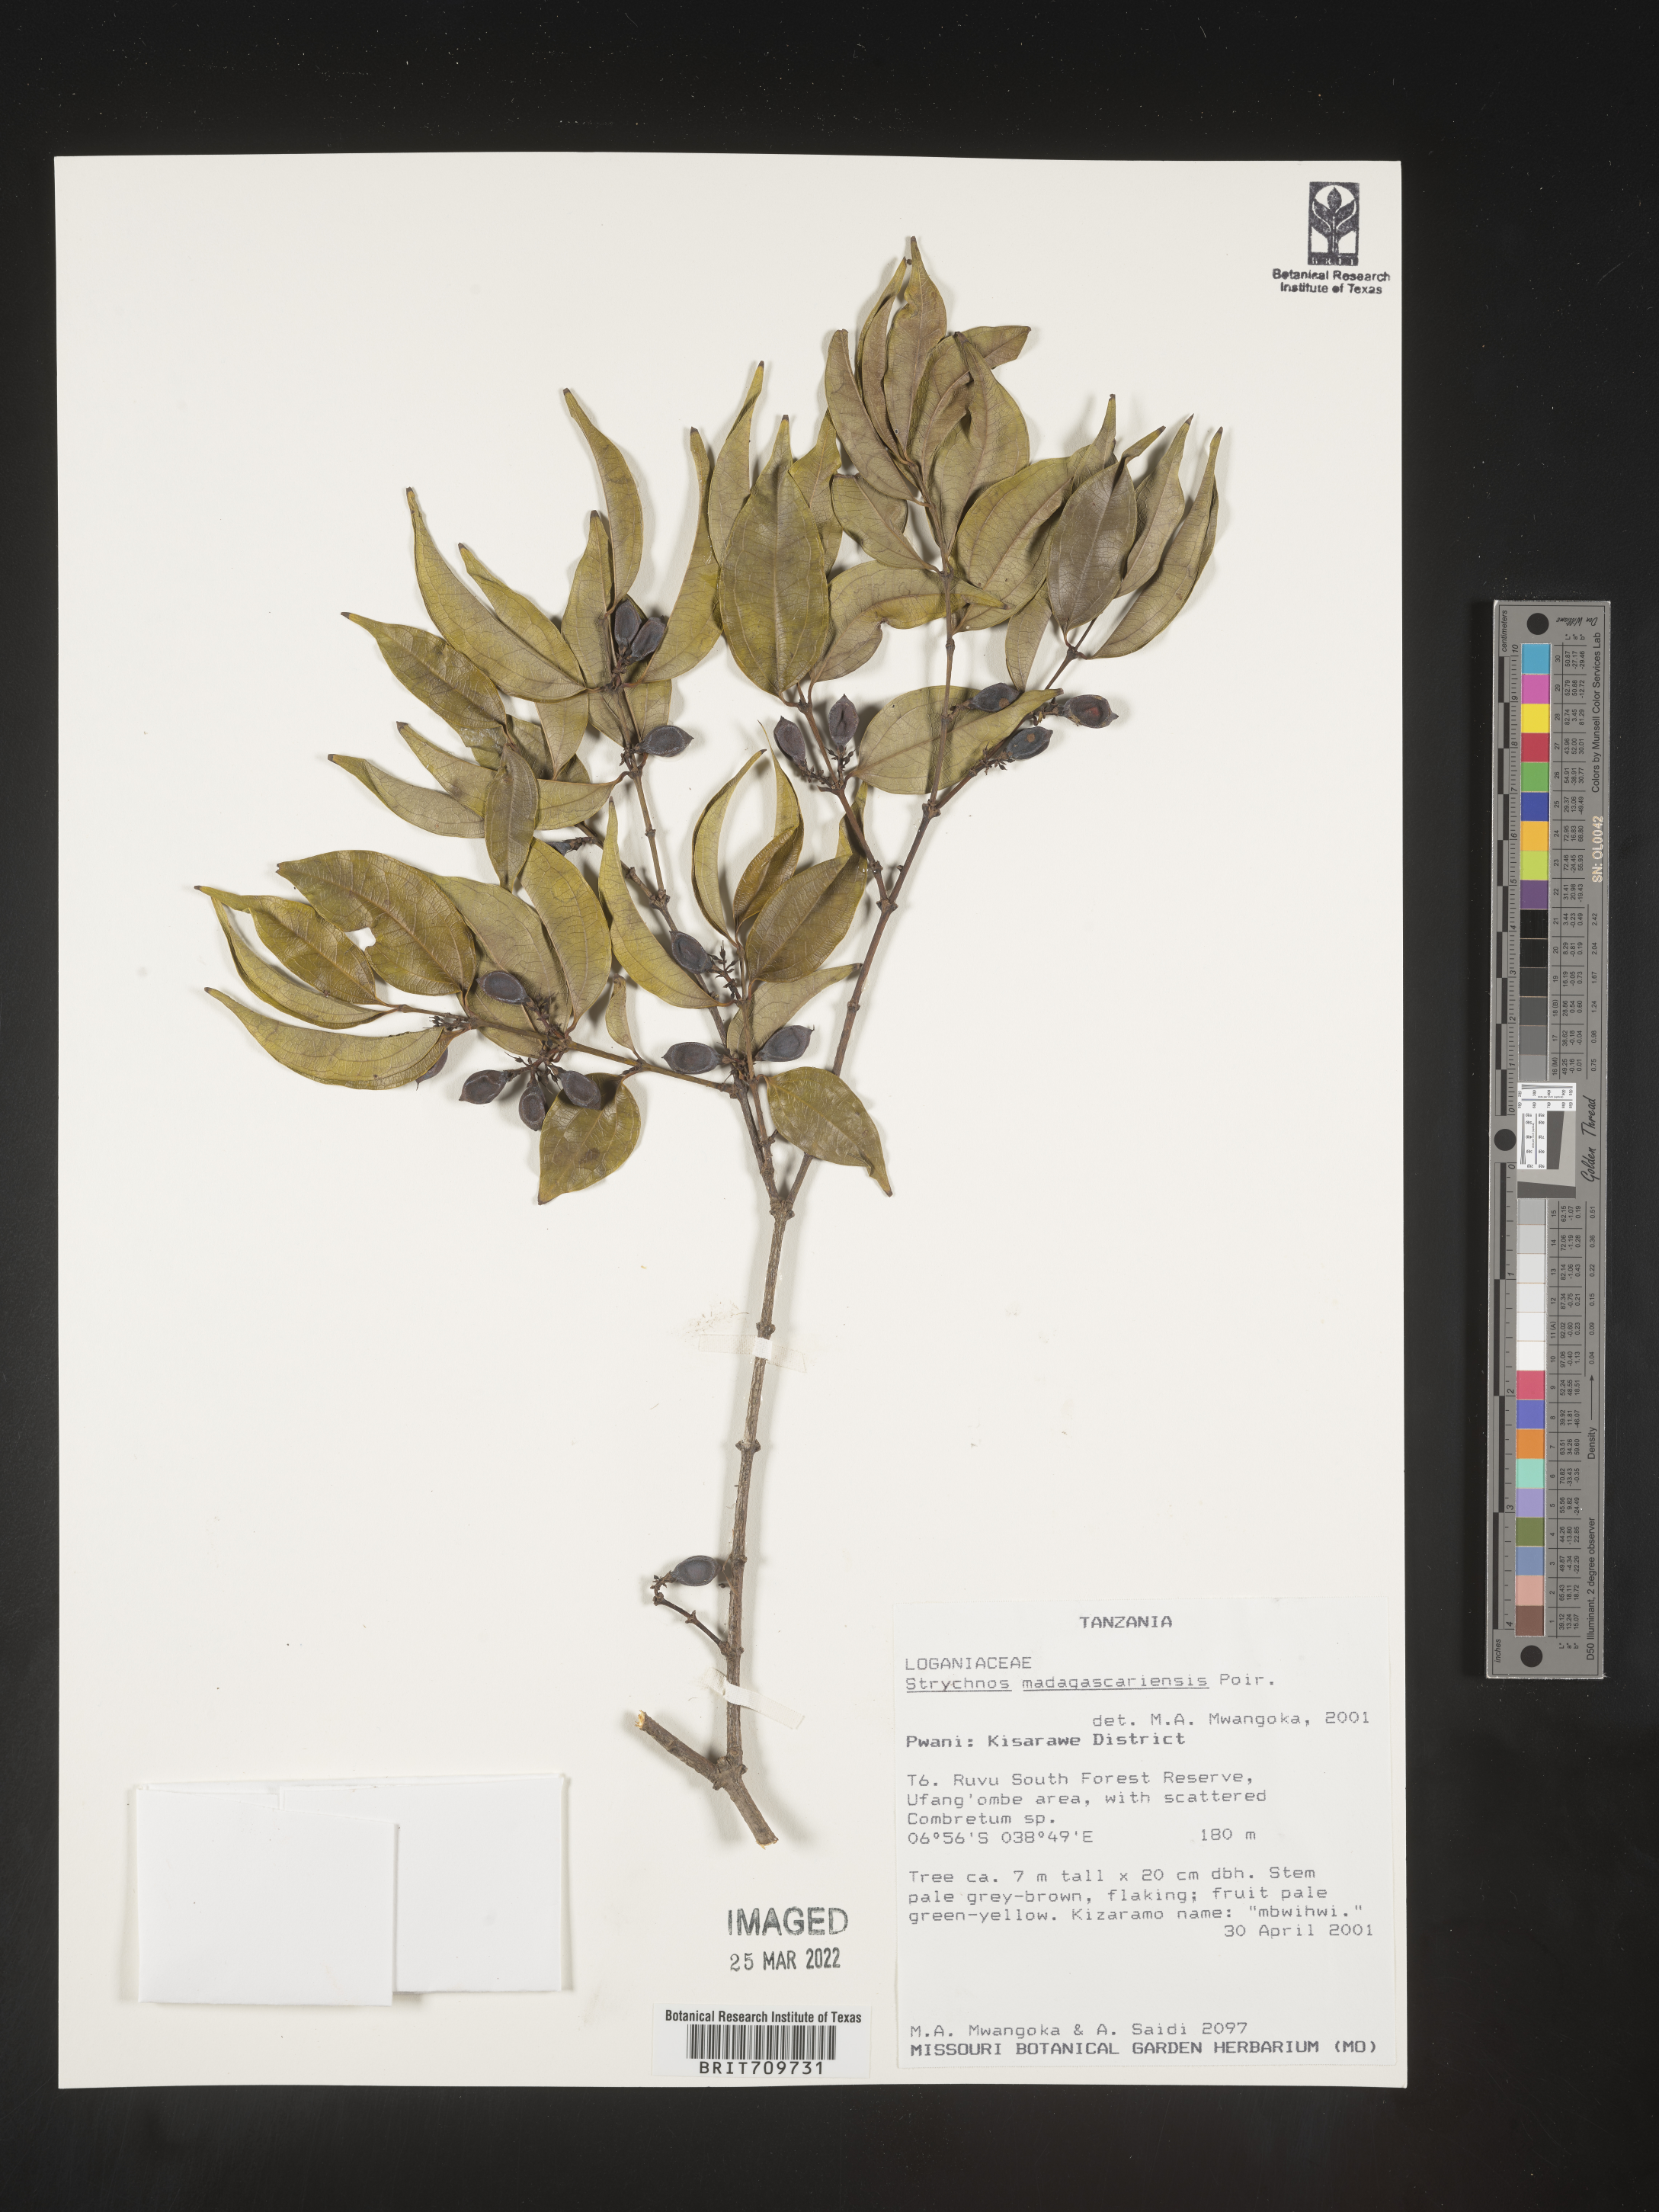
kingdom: Plantae
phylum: Tracheophyta
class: Magnoliopsida
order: Gentianales
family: Loganiaceae
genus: Strychnos
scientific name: Strychnos
